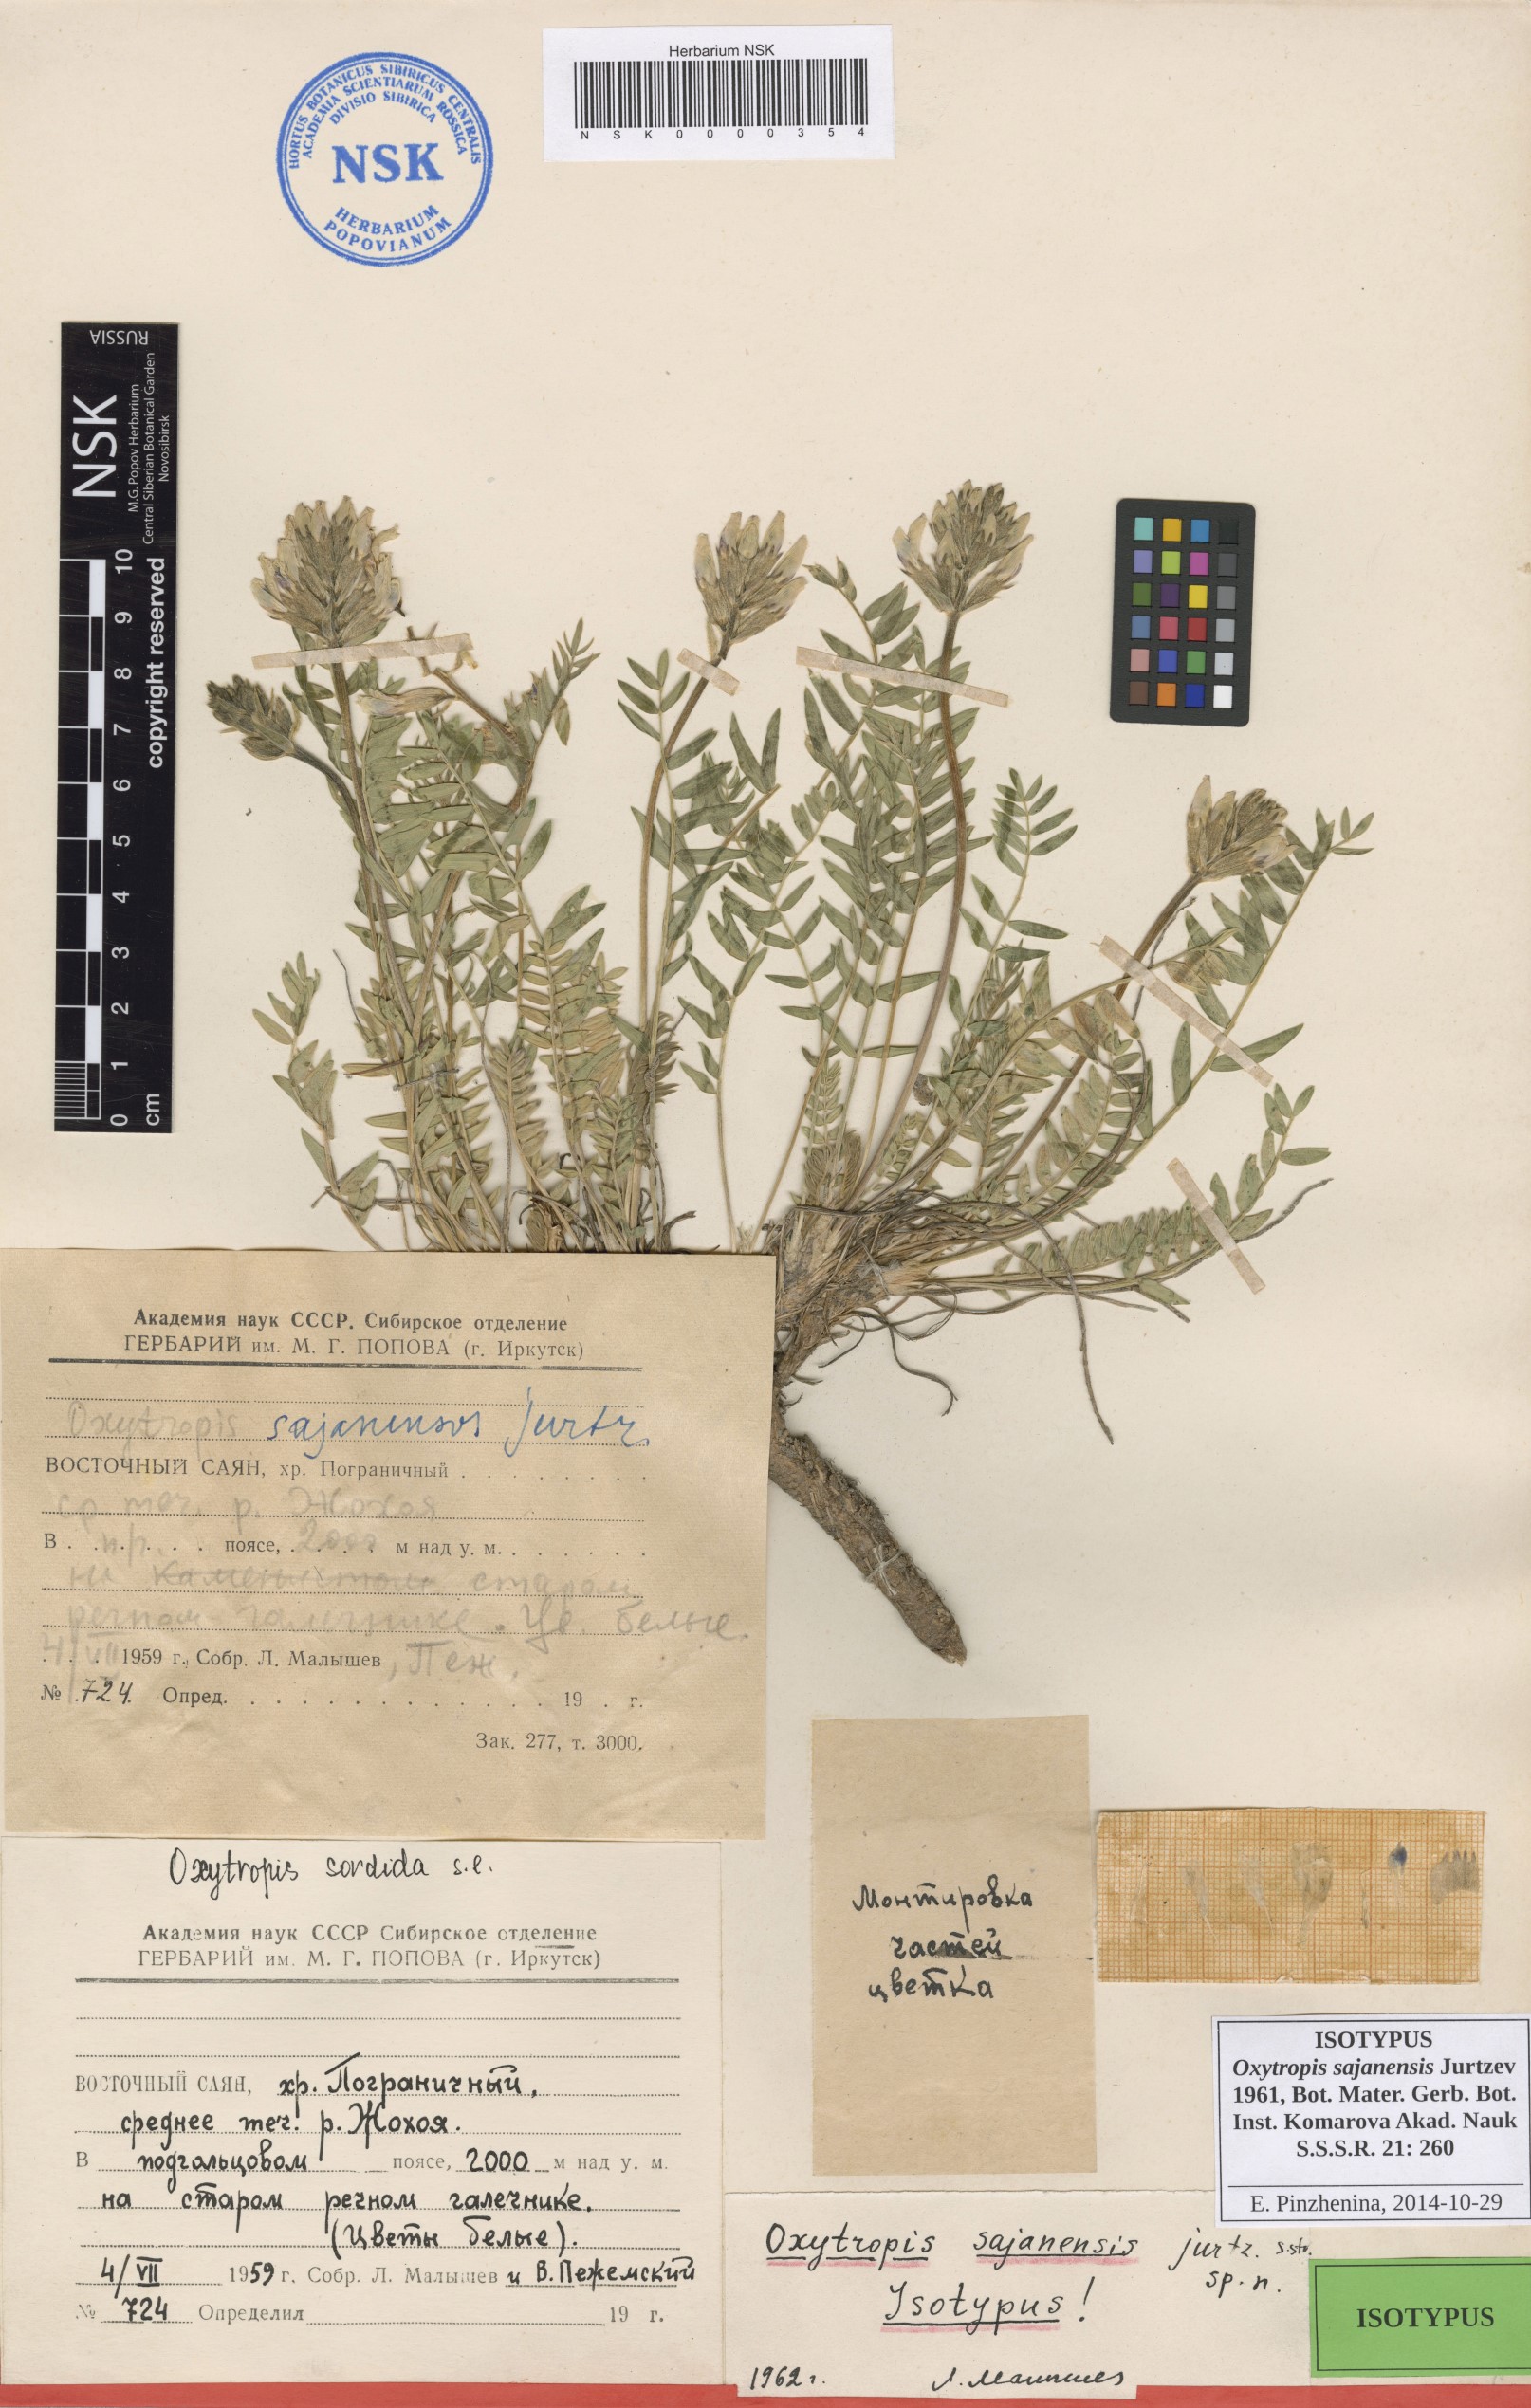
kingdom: Plantae
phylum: Tracheophyta
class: Magnoliopsida
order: Fabales
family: Fabaceae
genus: Oxytropis
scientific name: Oxytropis sajanensis
